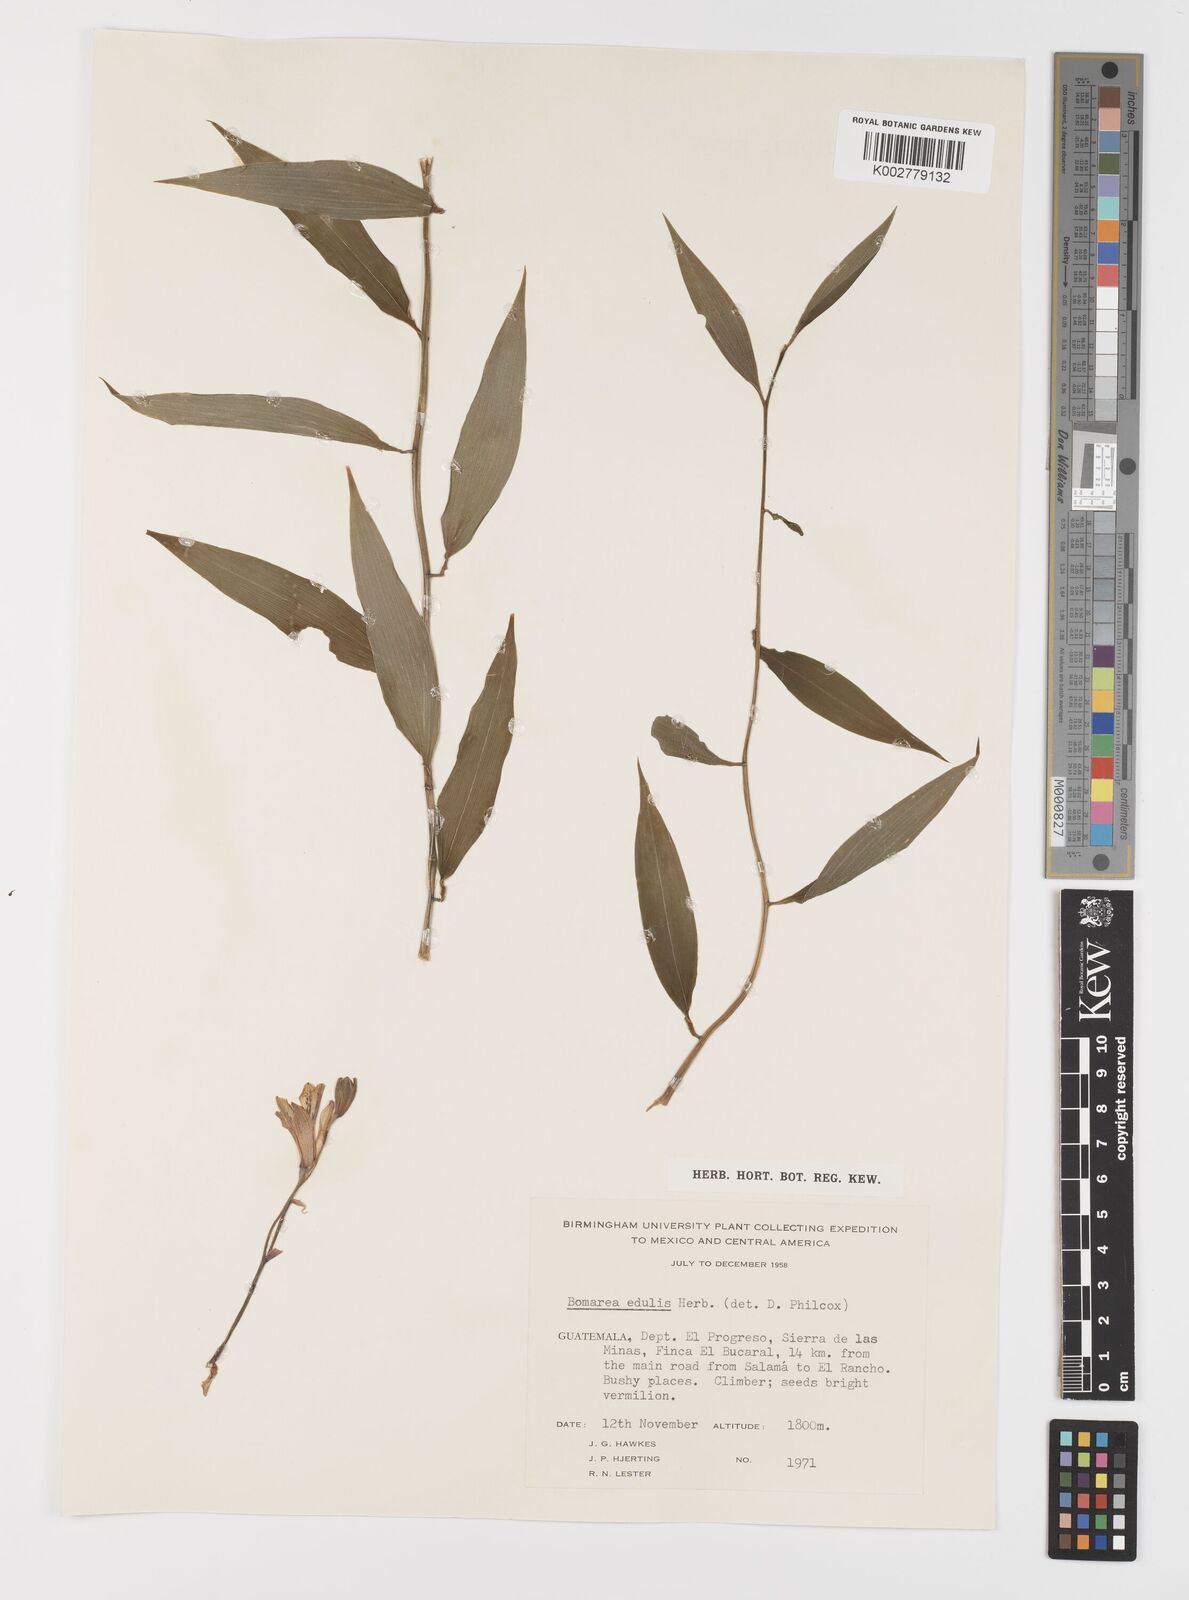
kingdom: Plantae
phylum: Tracheophyta
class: Liliopsida
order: Liliales
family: Alstroemeriaceae
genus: Bomarea
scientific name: Bomarea edulis
